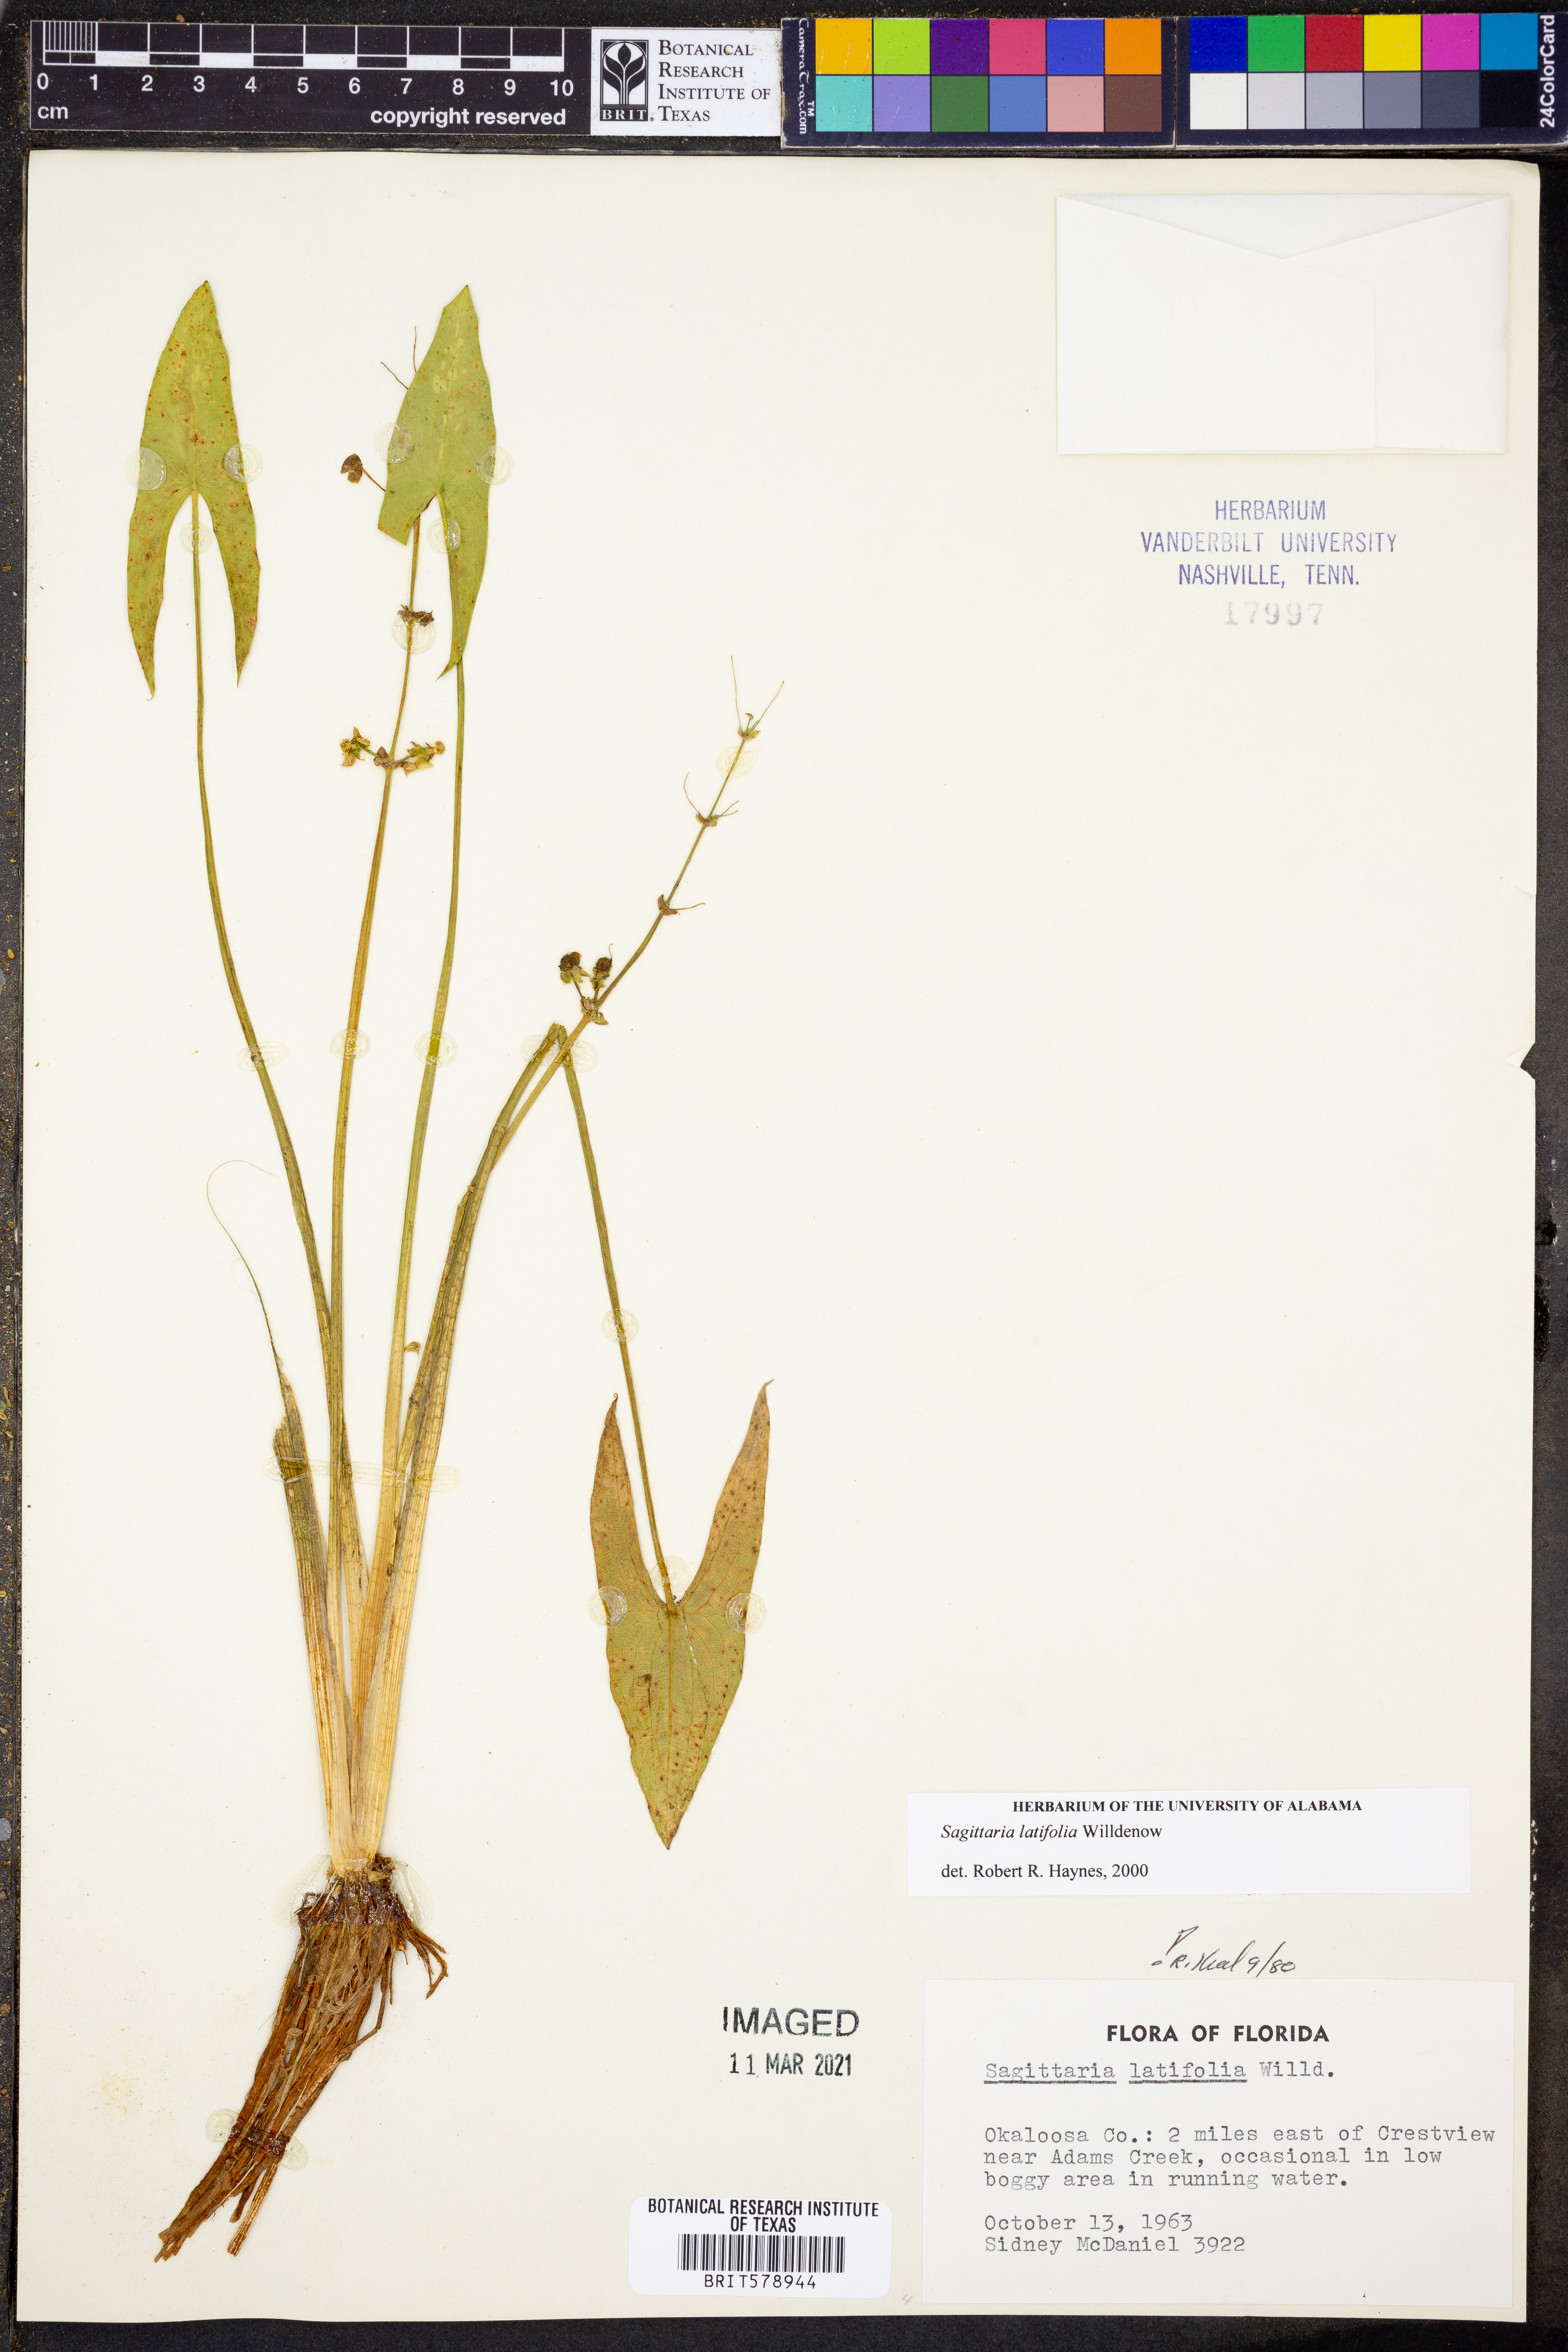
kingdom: Plantae
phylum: Tracheophyta
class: Liliopsida
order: Alismatales
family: Alismataceae
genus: Sagittaria
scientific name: Sagittaria latifolia
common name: Duck-potato
